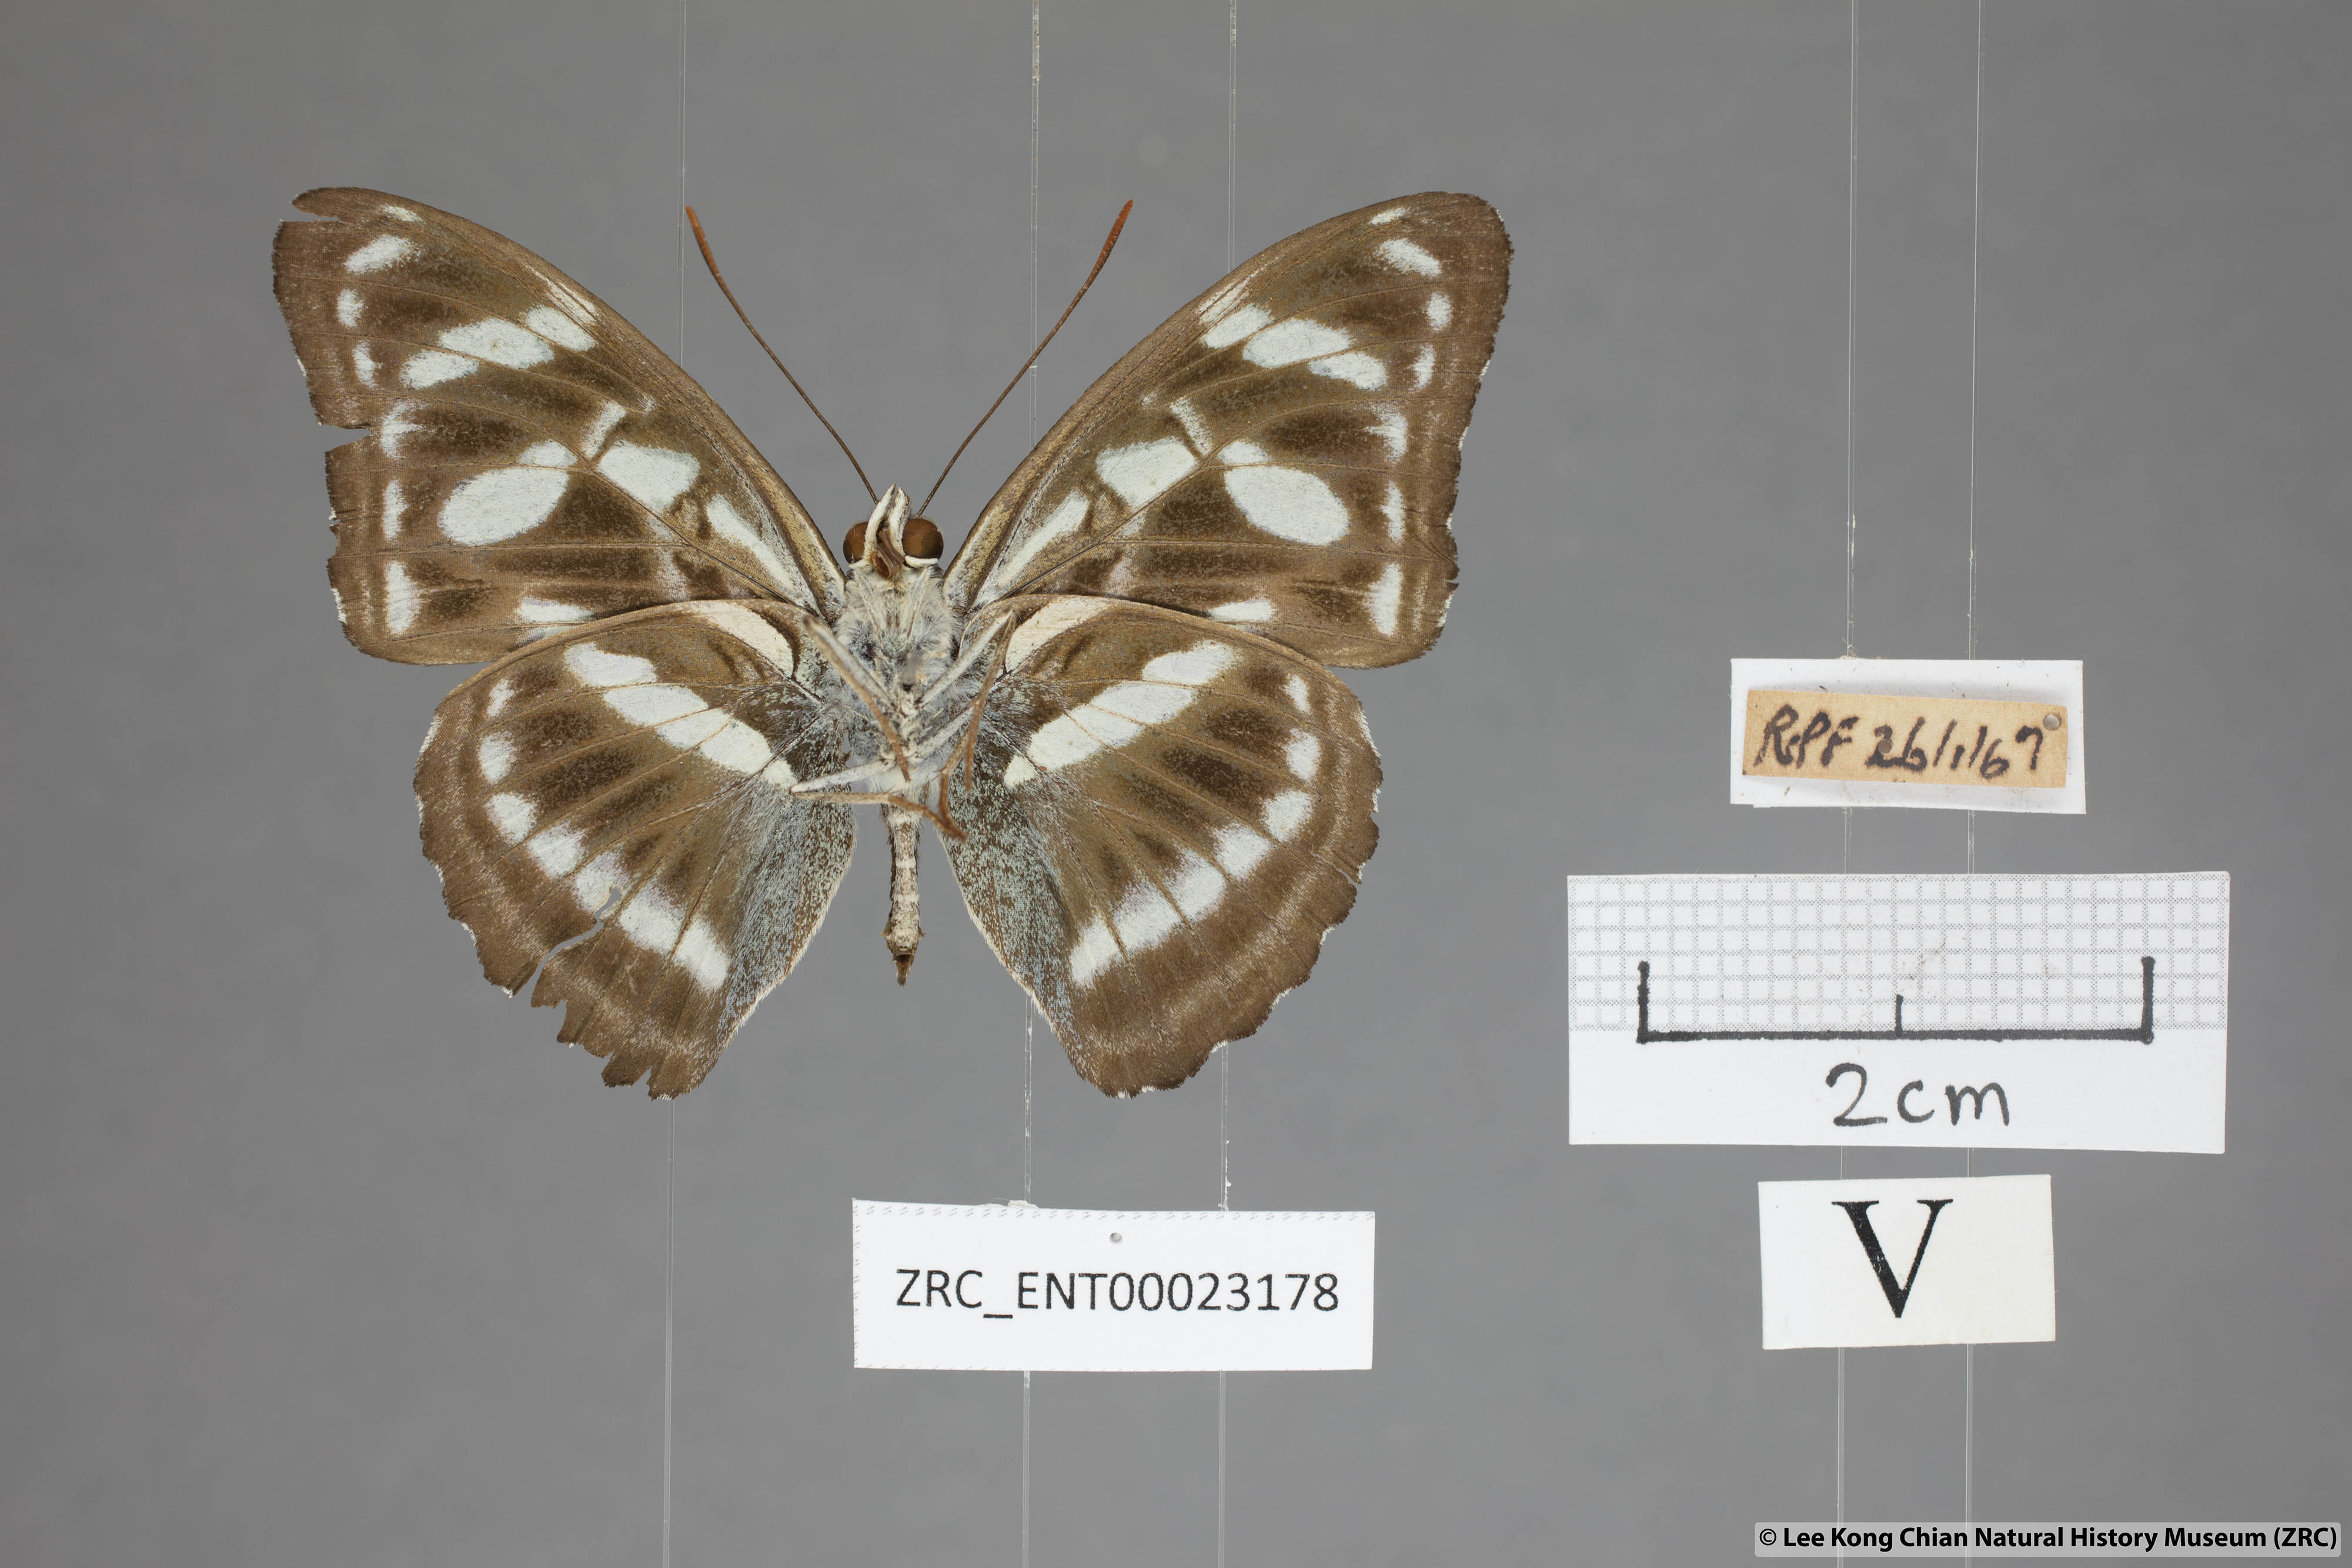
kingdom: Animalia
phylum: Arthropoda
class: Insecta
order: Lepidoptera
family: Nymphalidae
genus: Parathyma
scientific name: Parathyma abiasa
